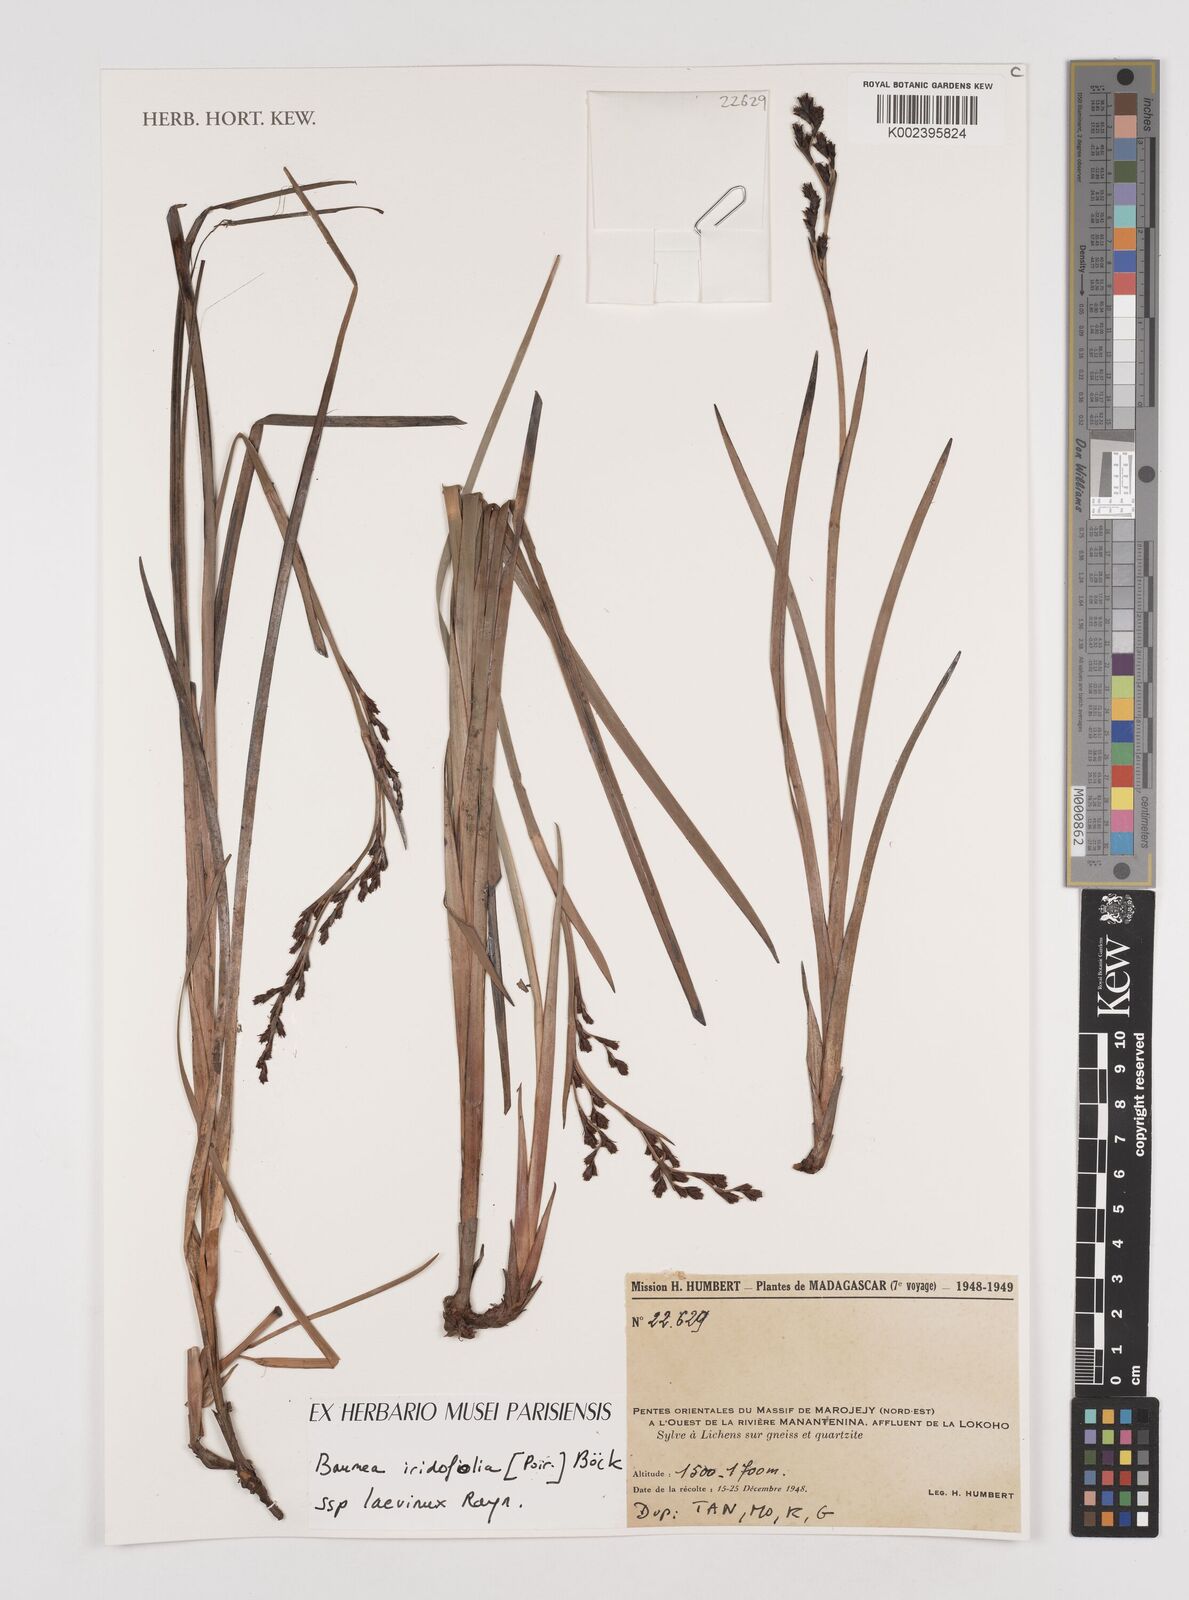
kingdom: Plantae
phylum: Tracheophyta
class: Liliopsida
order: Poales
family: Cyperaceae
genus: Machaerina
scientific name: Machaerina iridifolia
